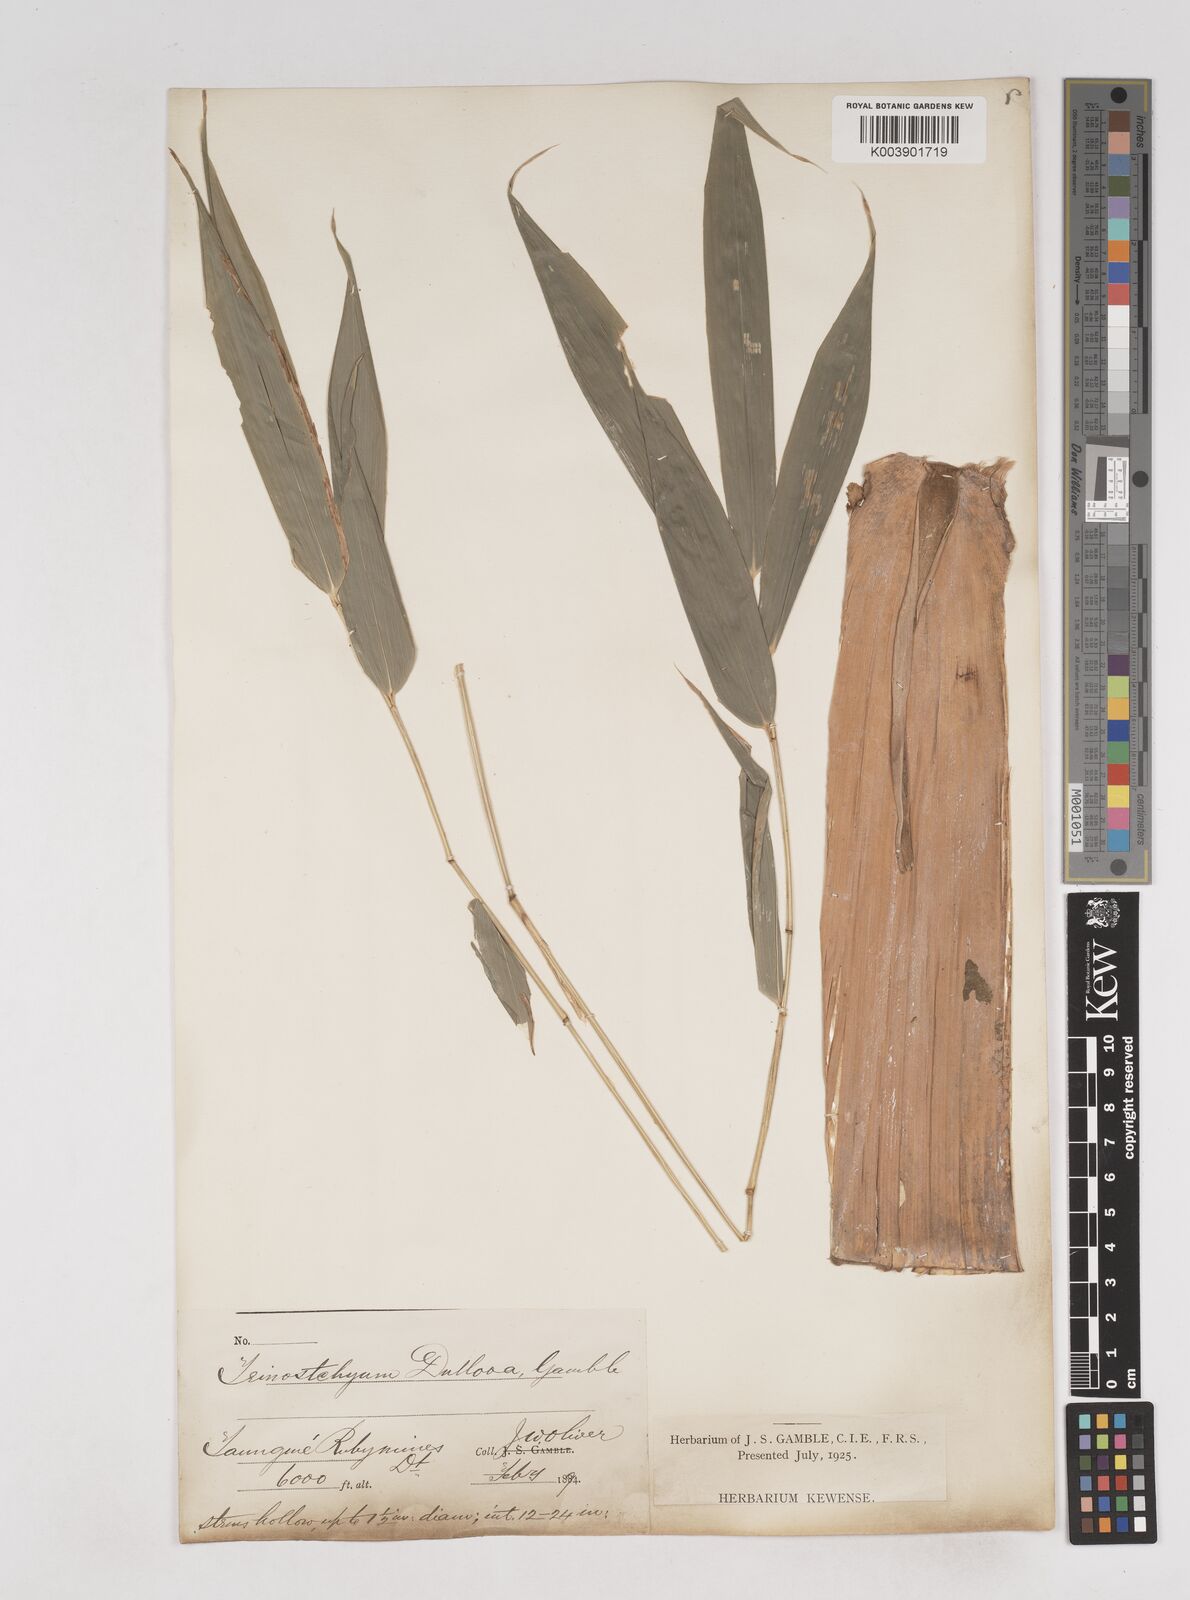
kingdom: Plantae
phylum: Tracheophyta
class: Liliopsida
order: Poales
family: Poaceae
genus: Schizostachyum
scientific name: Schizostachyum dullooa
